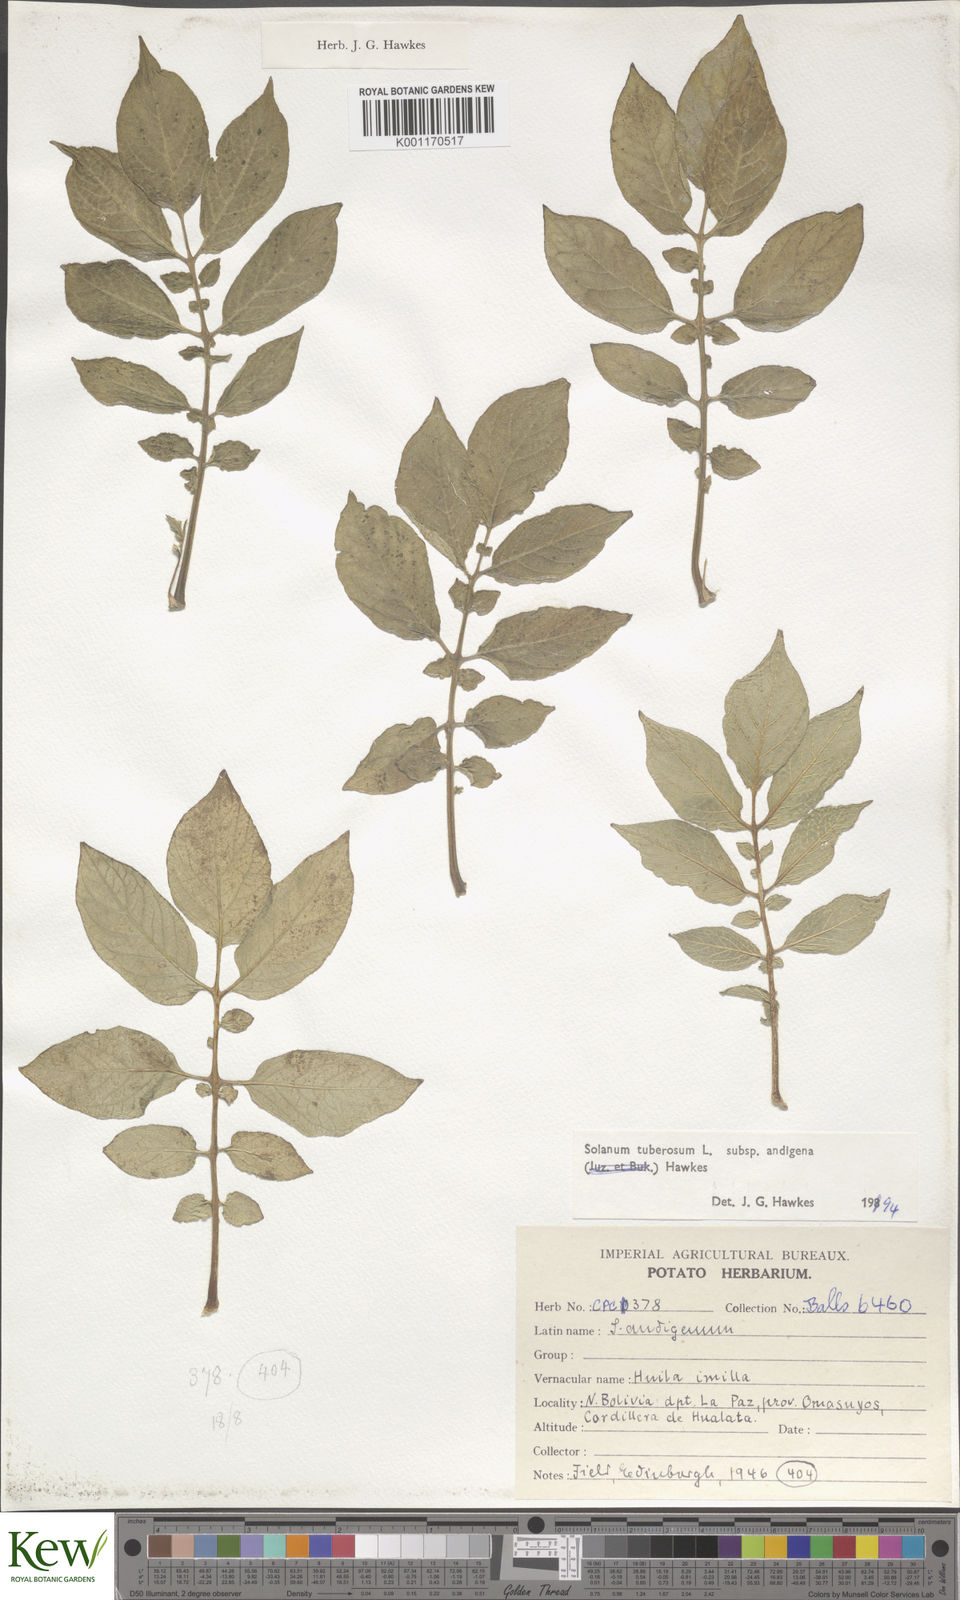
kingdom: Plantae
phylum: Tracheophyta
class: Magnoliopsida
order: Solanales
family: Solanaceae
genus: Solanum
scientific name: Solanum tuberosum
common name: Potato
